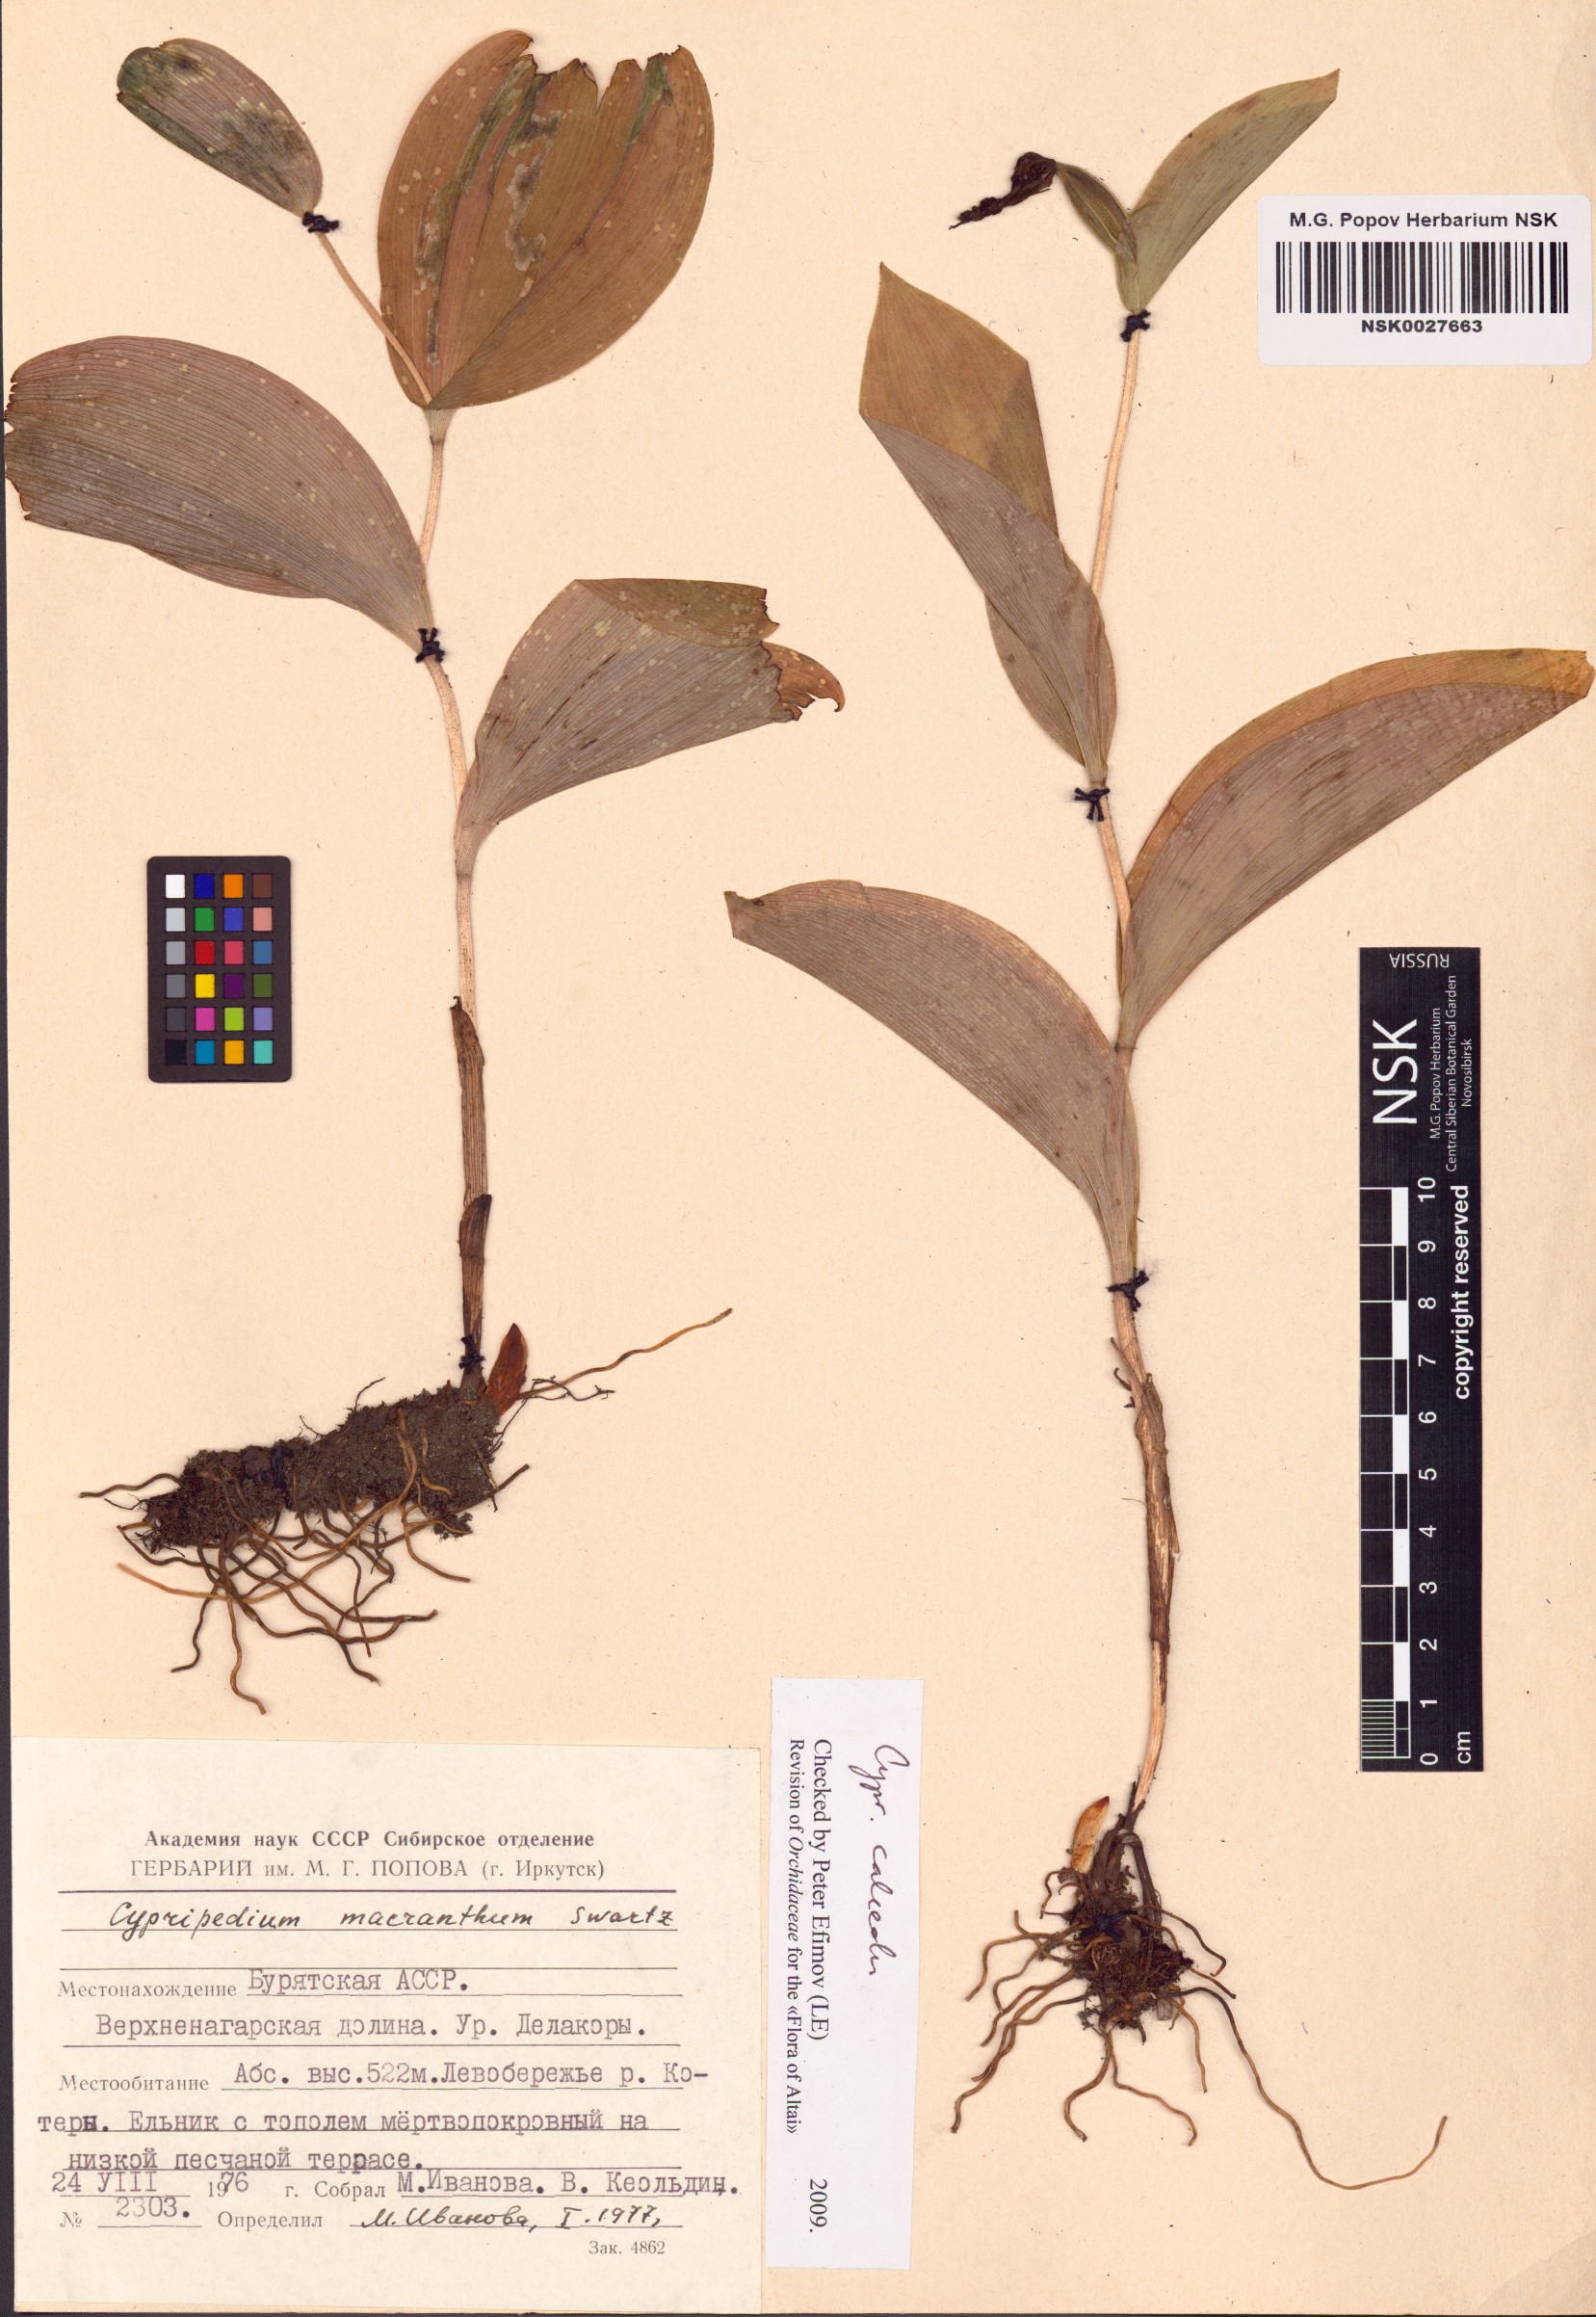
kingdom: Plantae
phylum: Tracheophyta
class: Liliopsida
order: Asparagales
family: Orchidaceae
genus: Cypripedium
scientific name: Cypripedium calceolus
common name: Lady's-slipper
